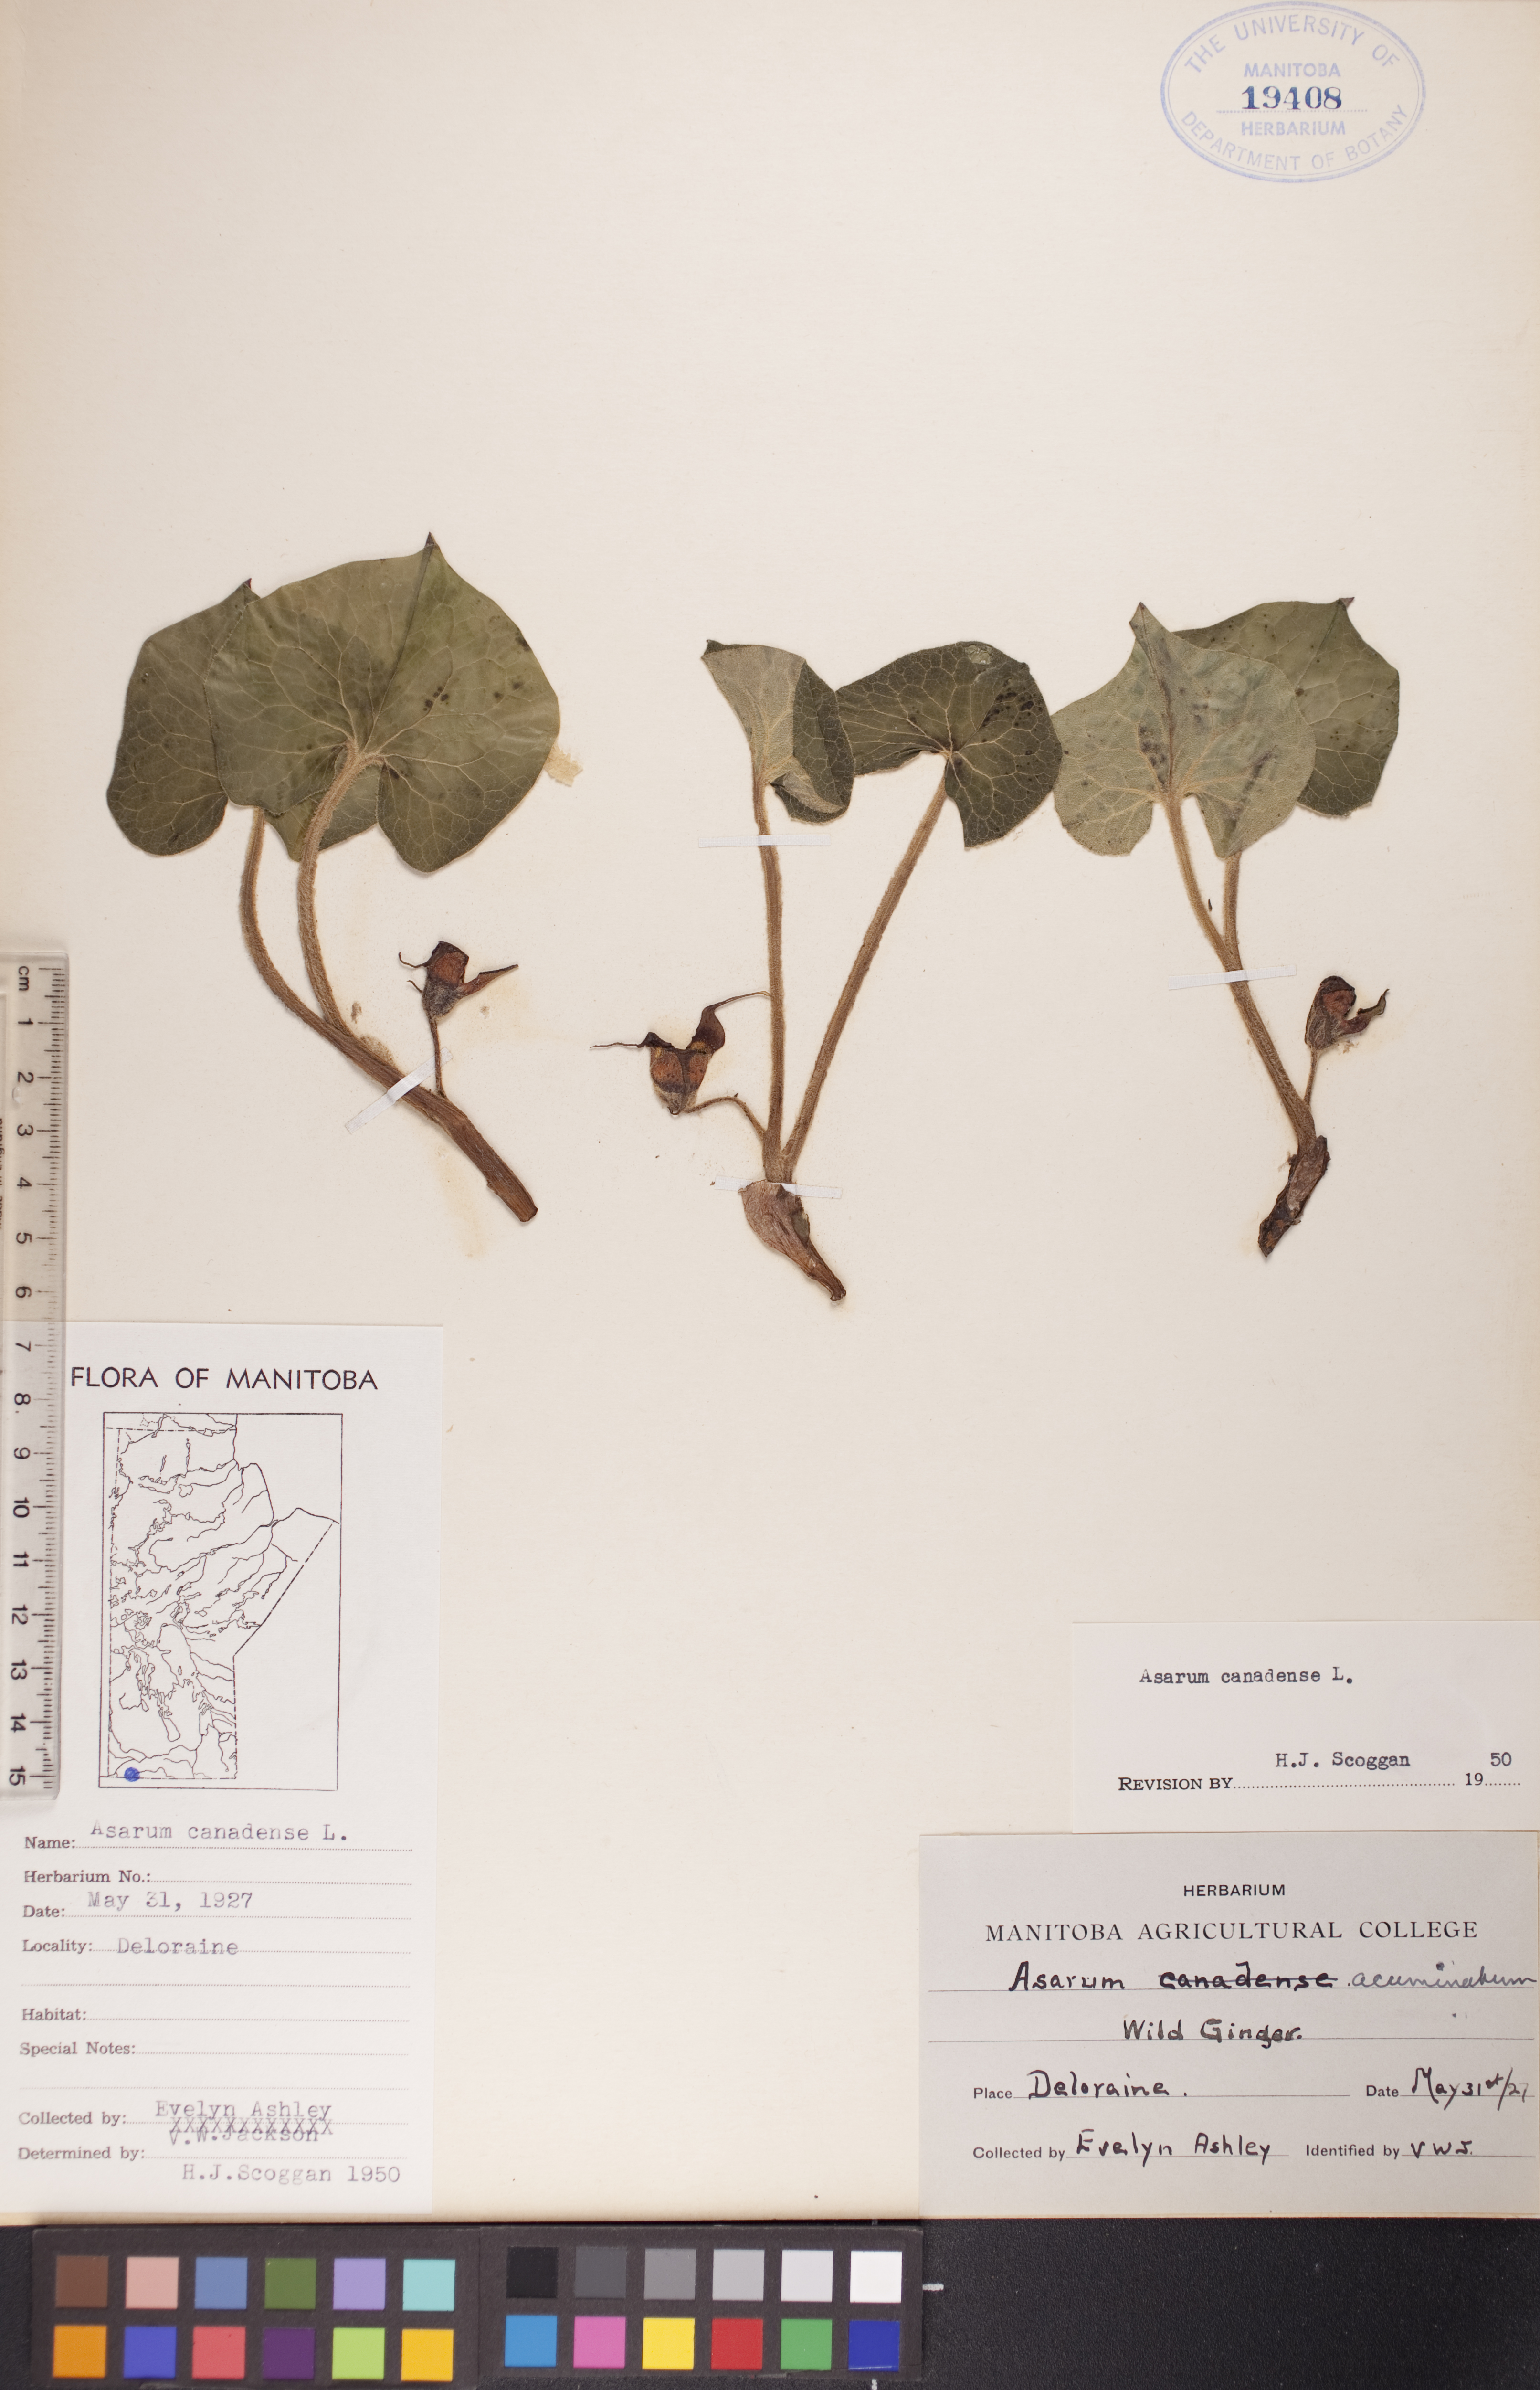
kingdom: Plantae
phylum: Tracheophyta
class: Magnoliopsida
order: Piperales
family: Aristolochiaceae
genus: Asarum
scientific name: Asarum canadense
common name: Wild ginger
